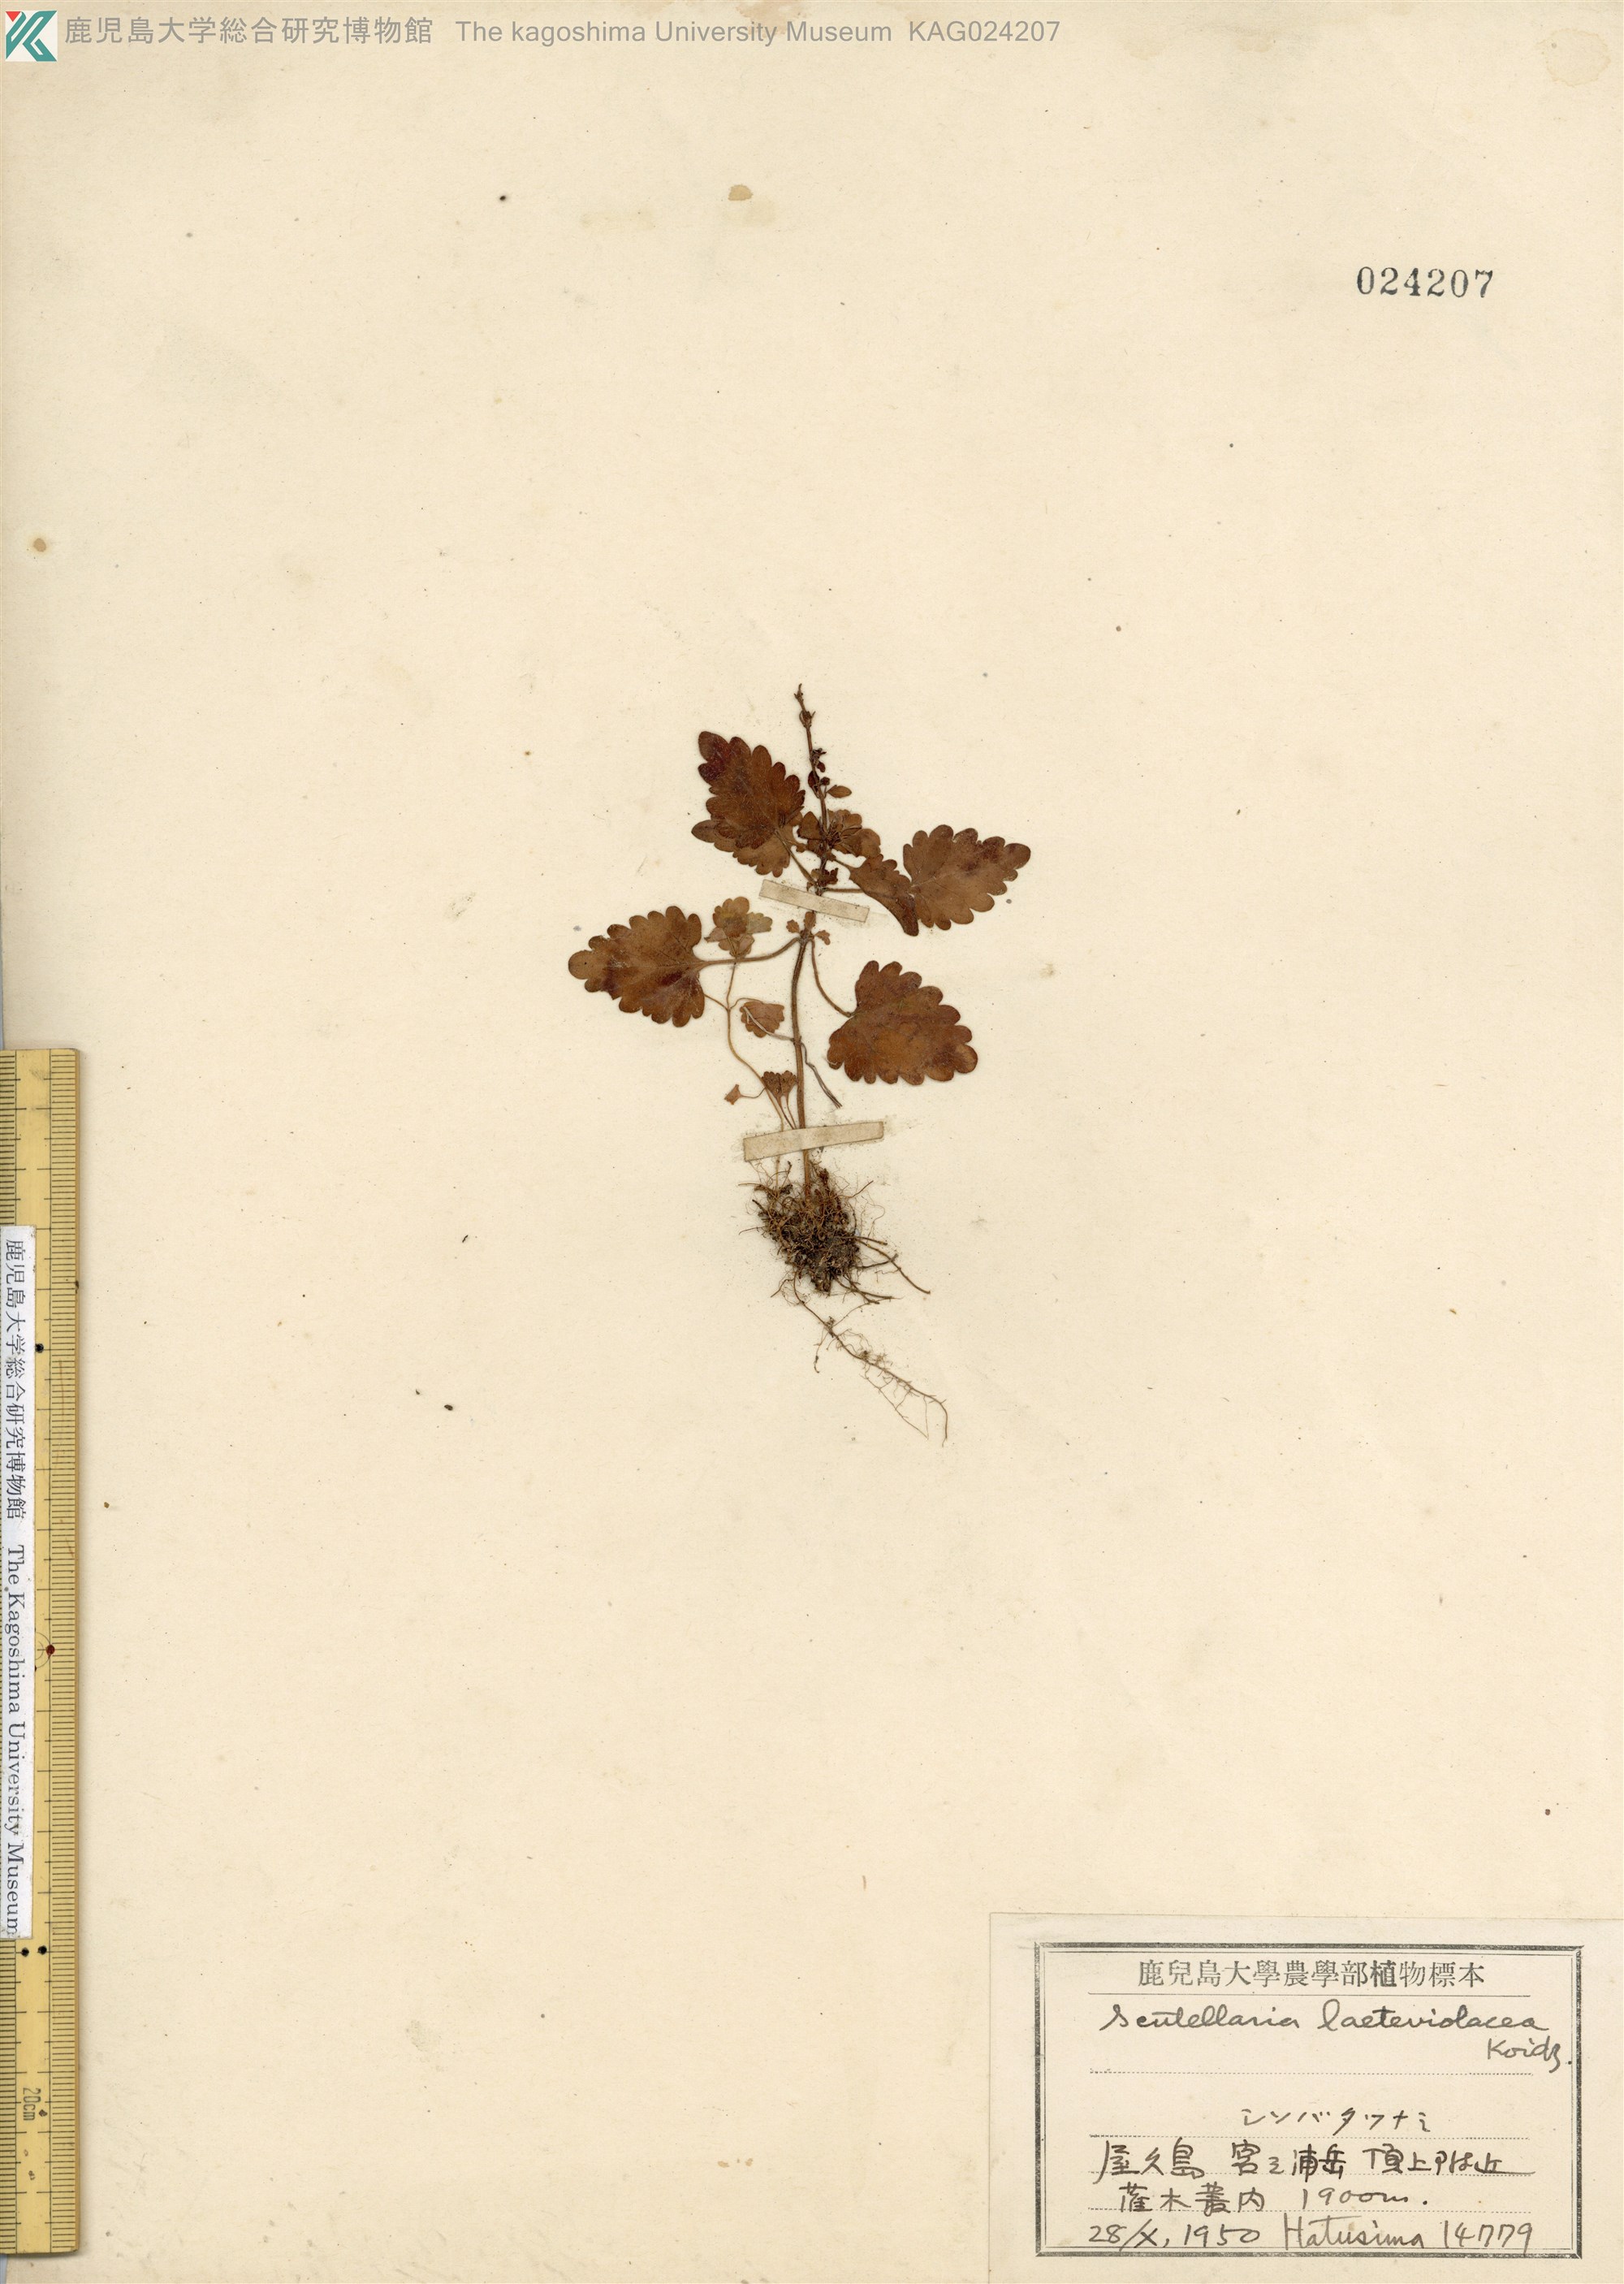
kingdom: Plantae
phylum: Tracheophyta
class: Magnoliopsida
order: Lamiales
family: Lamiaceae
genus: Scutellaria
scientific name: Scutellaria kuromidakensis
